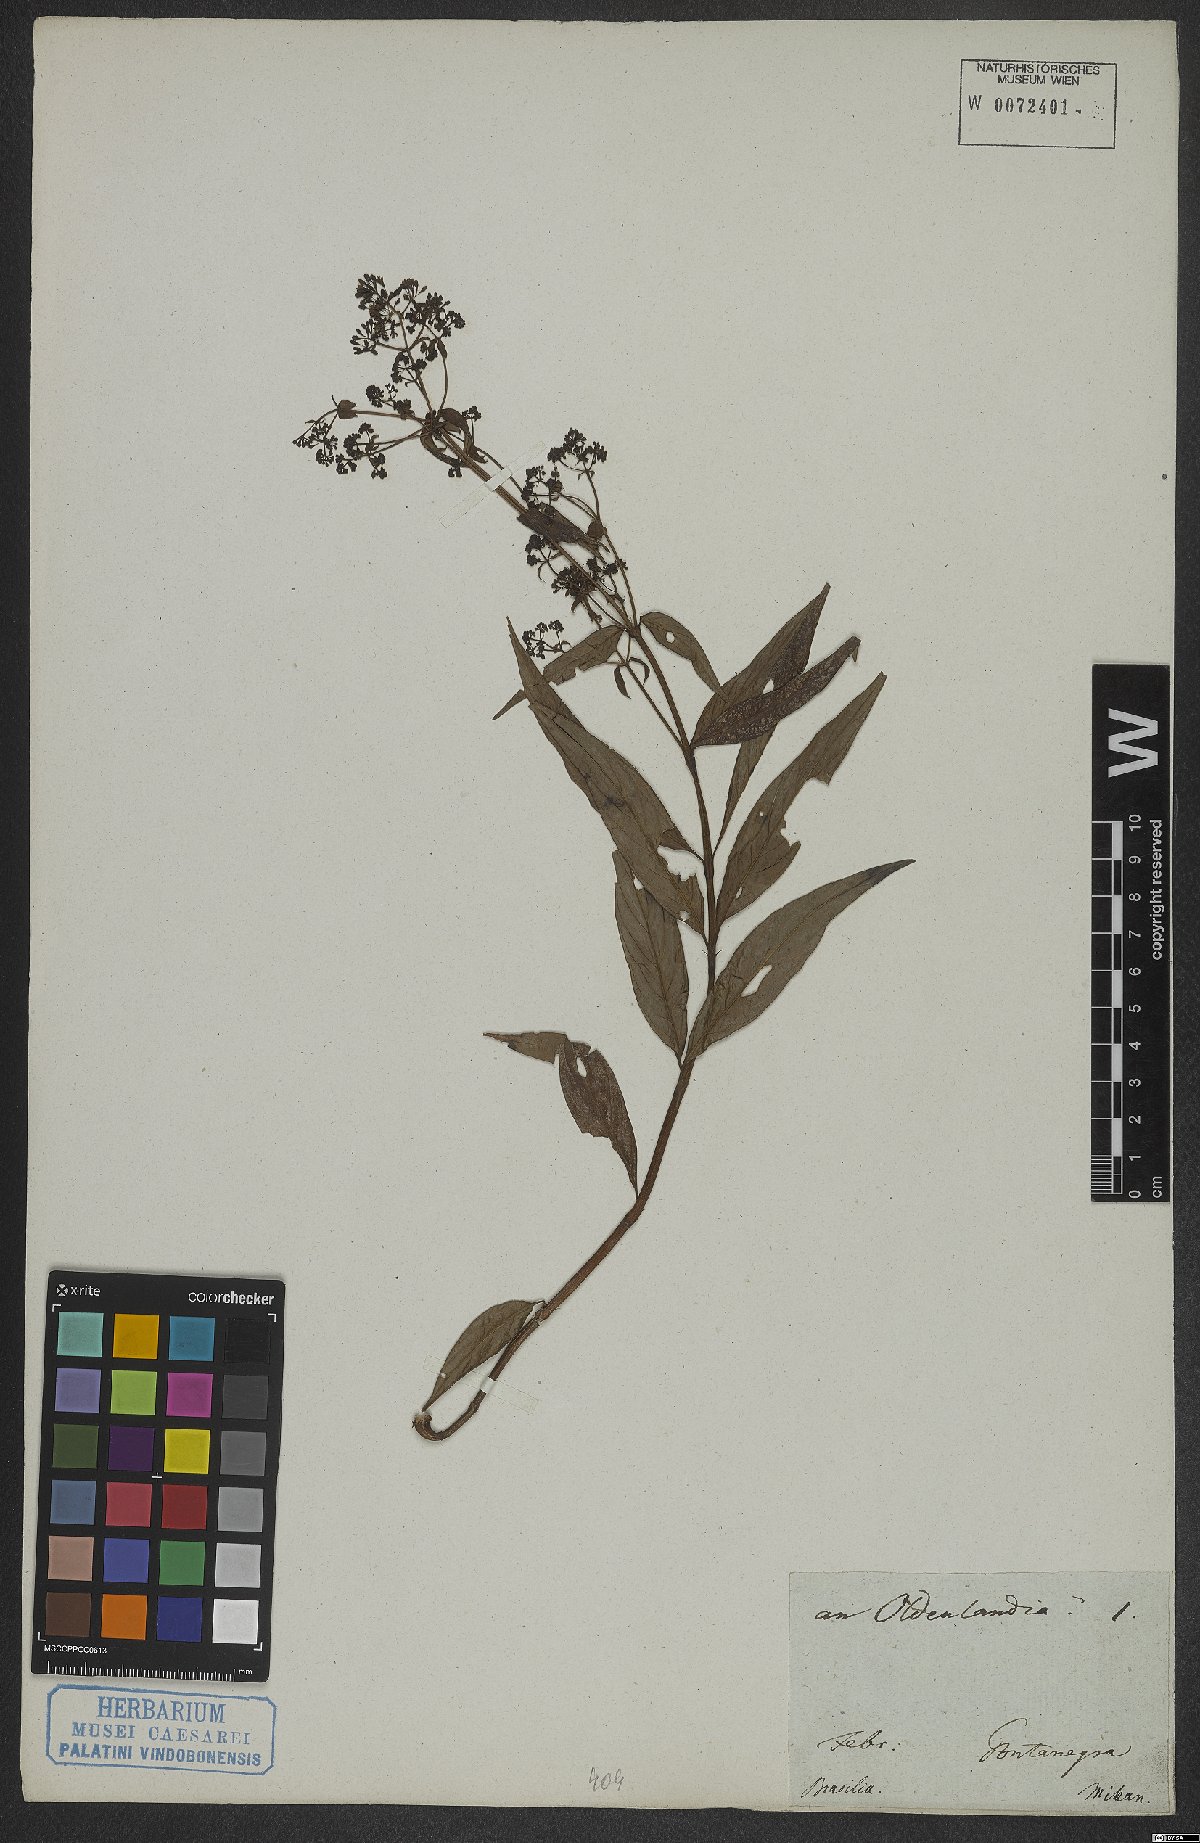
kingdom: Plantae
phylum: Tracheophyta
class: Magnoliopsida
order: Gentianales
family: Rubiaceae
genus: Oldenlandia
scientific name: Oldenlandia
